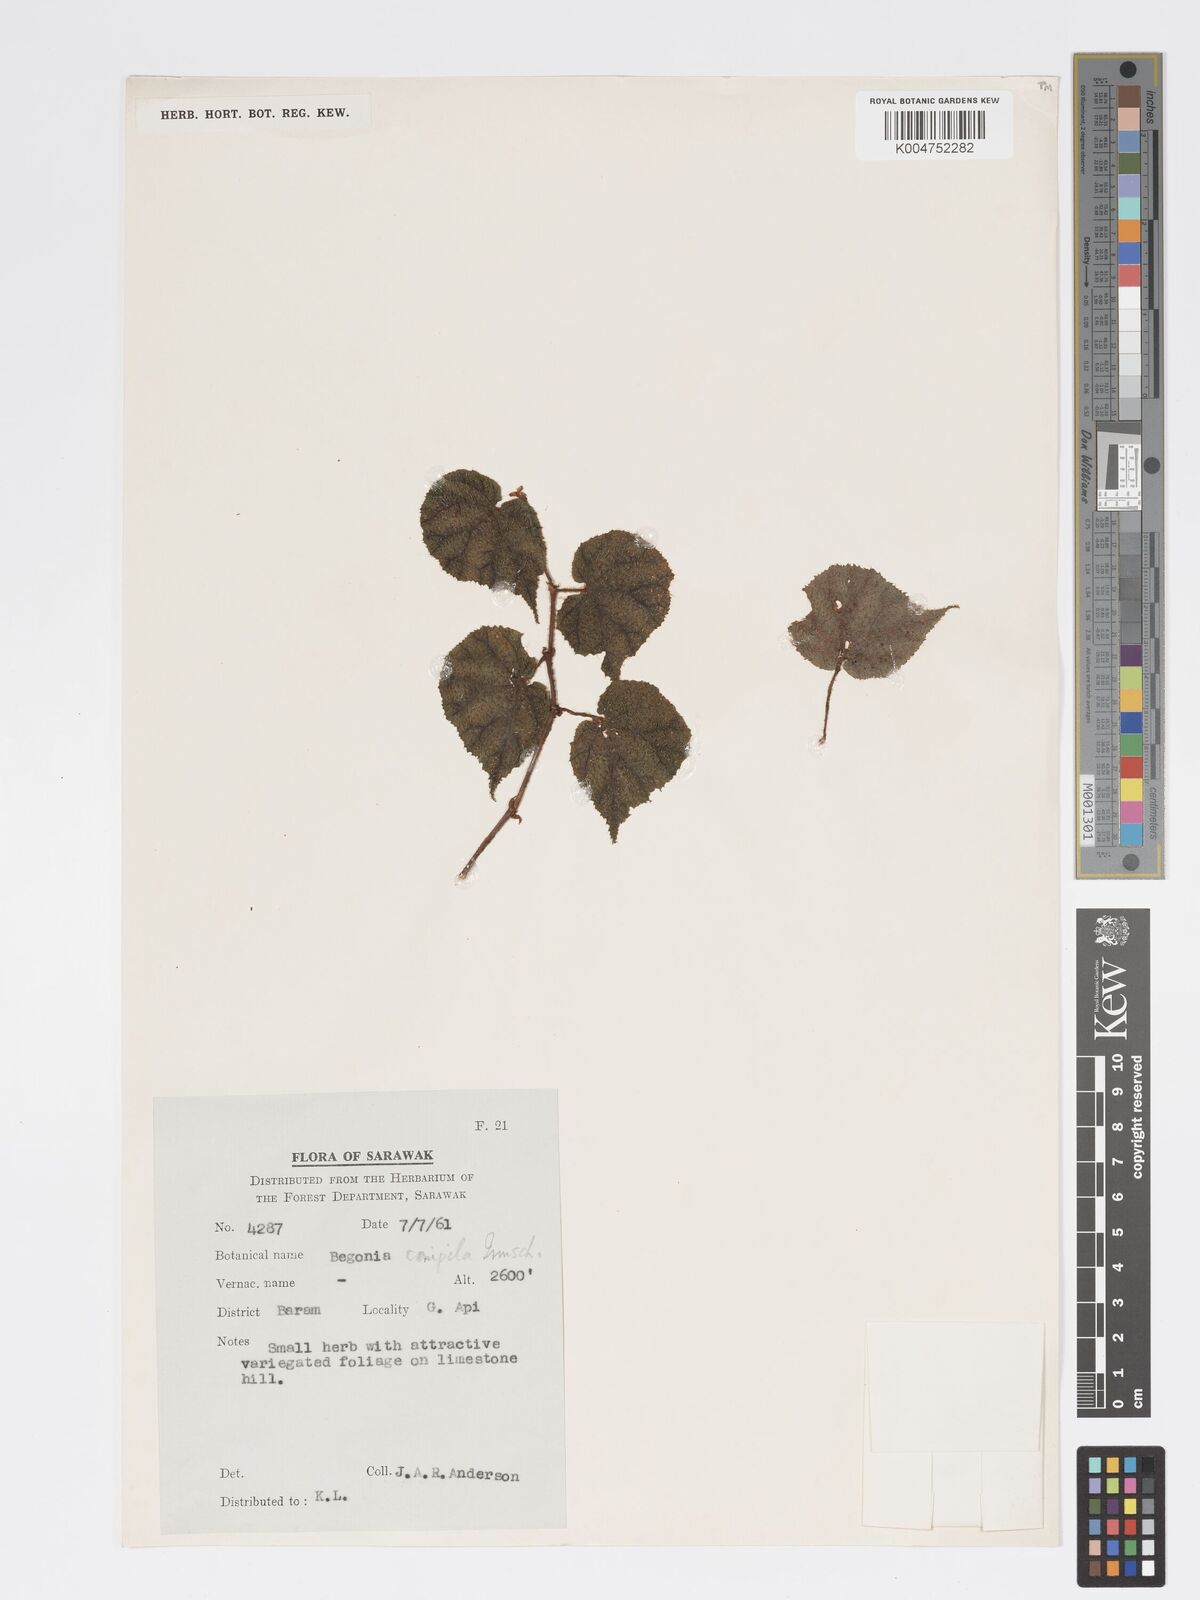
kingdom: Plantae
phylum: Tracheophyta
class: Magnoliopsida
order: Cucurbitales
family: Begoniaceae
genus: Begonia
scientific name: Begonia conipila
